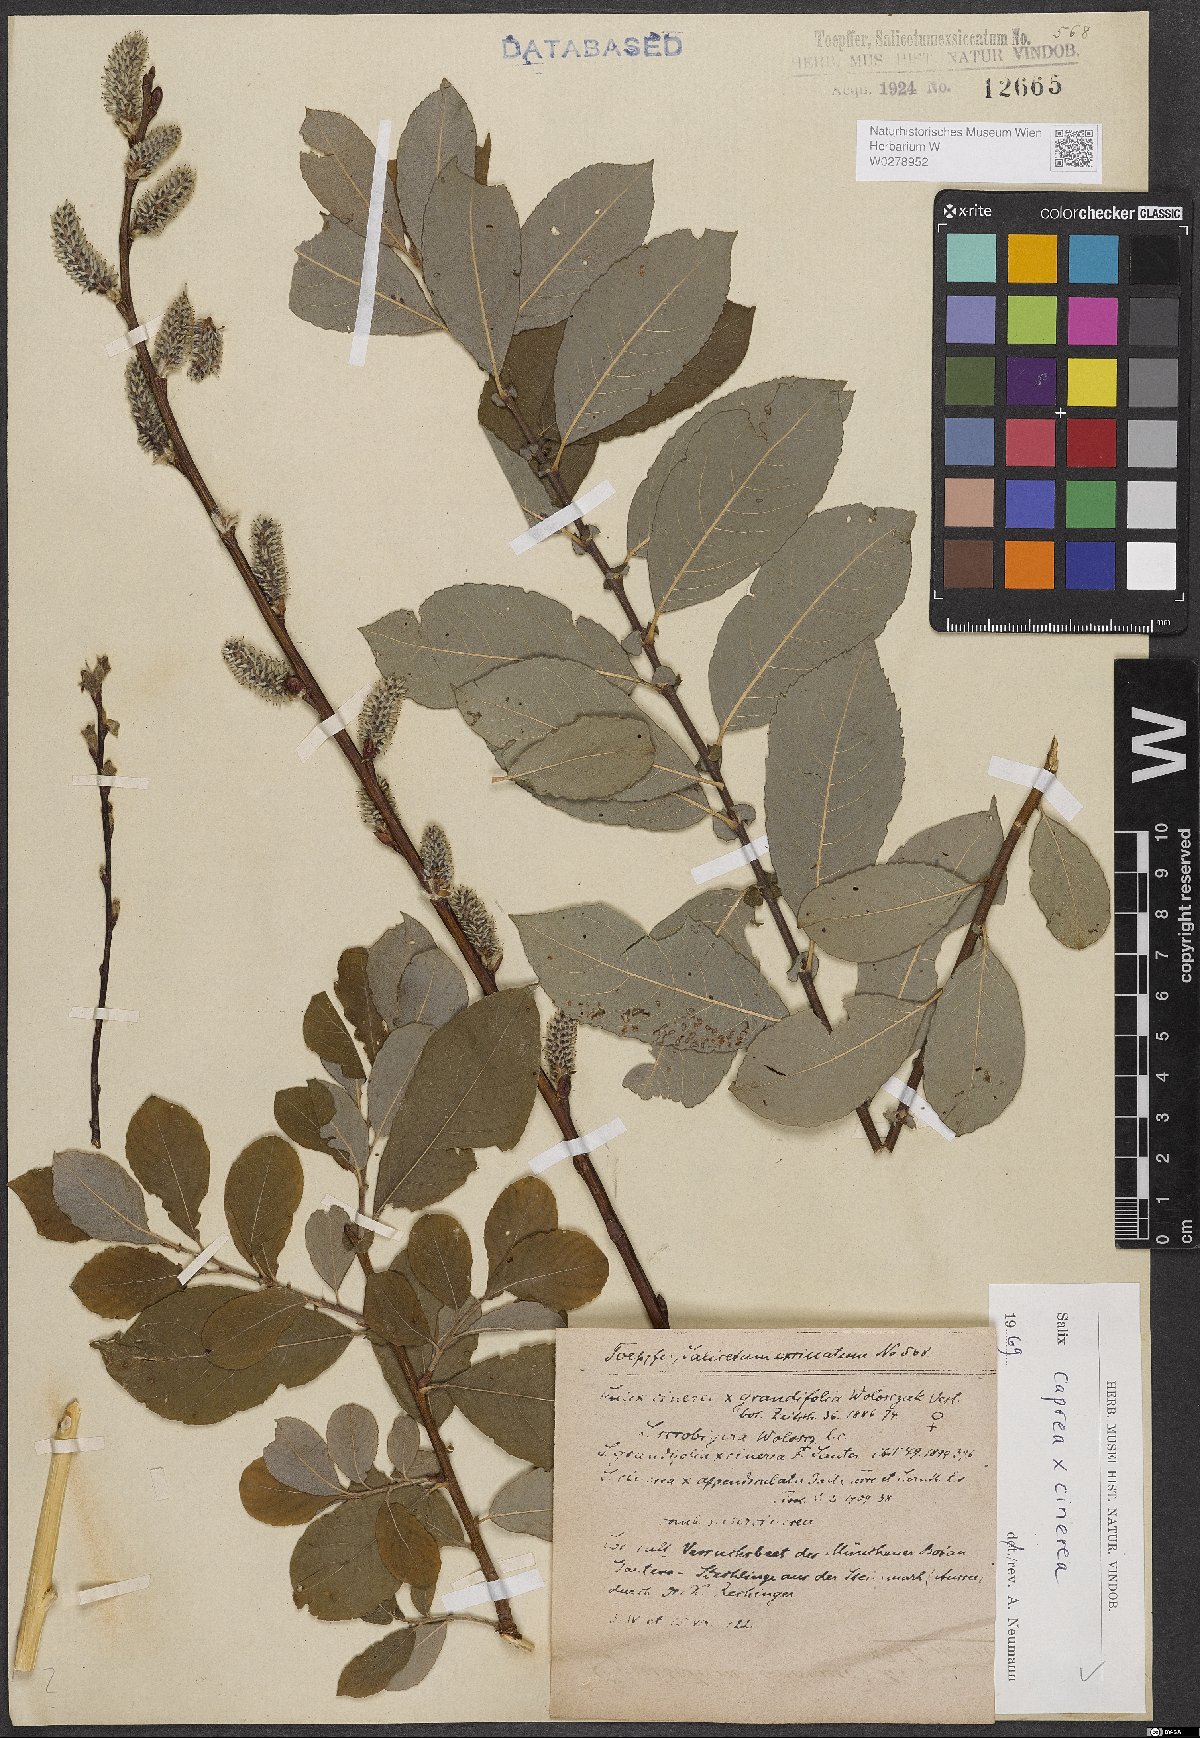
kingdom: Plantae
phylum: Tracheophyta
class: Magnoliopsida
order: Malpighiales
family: Salicaceae
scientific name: Salicaceae
